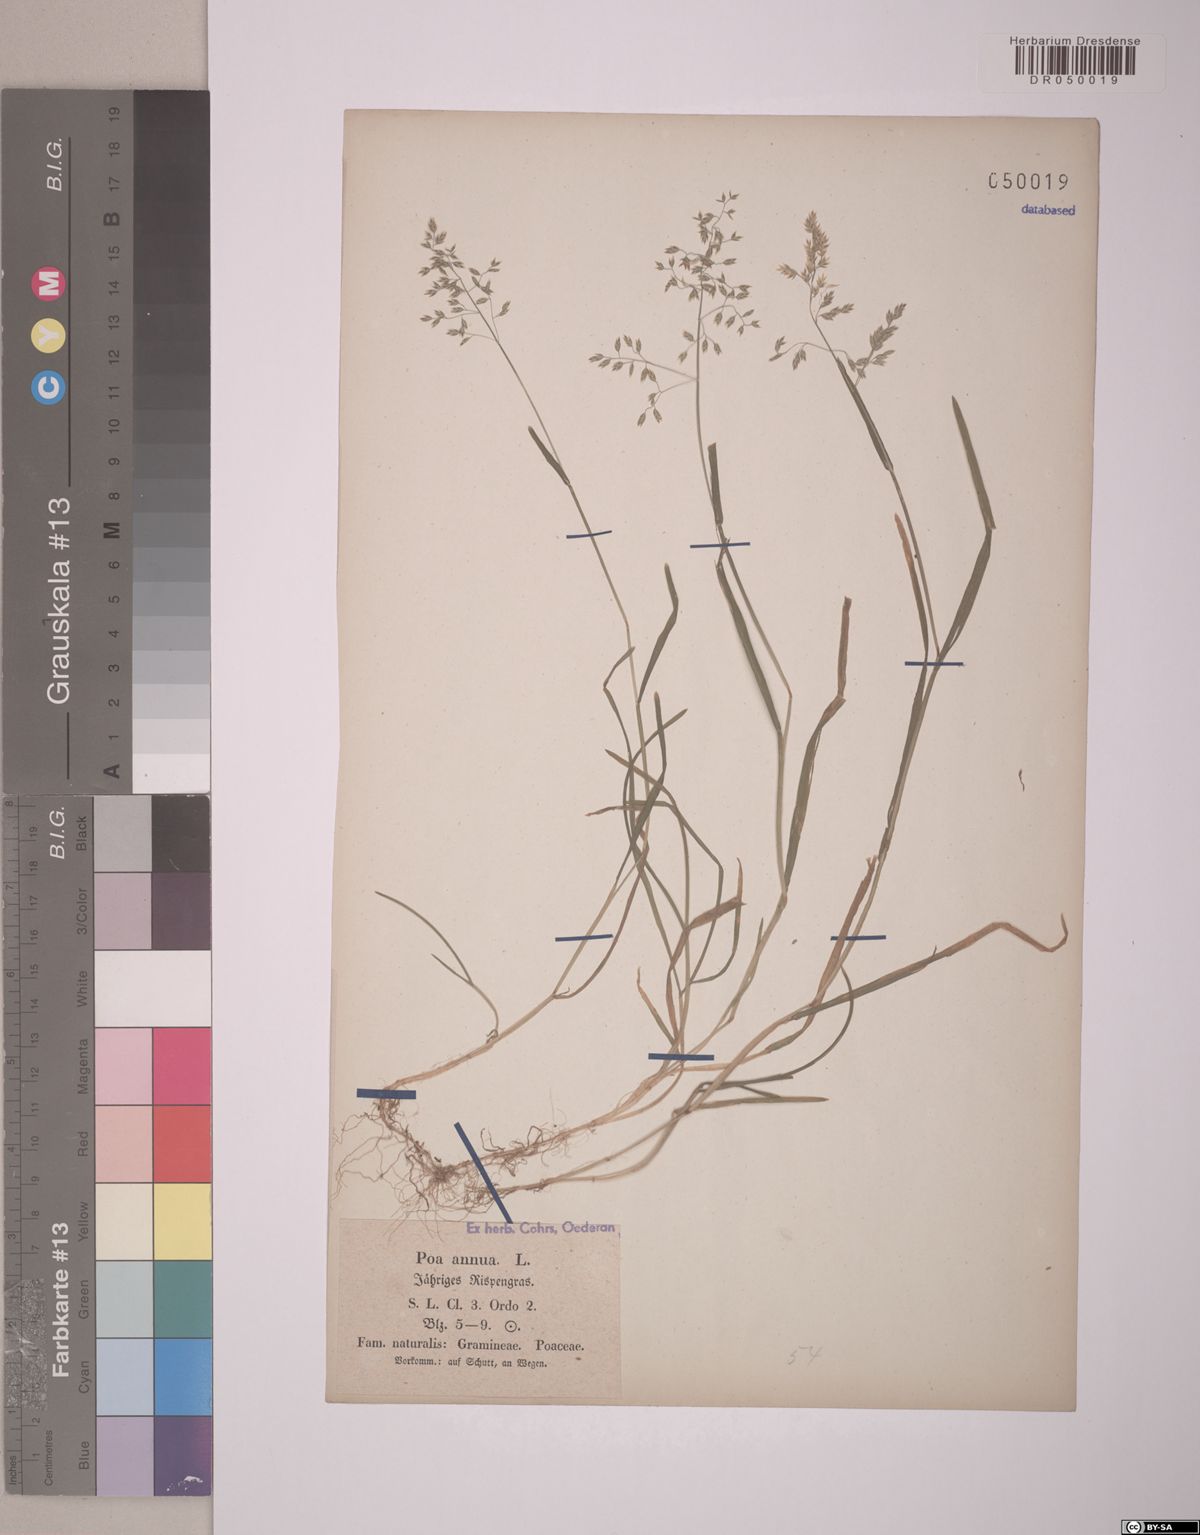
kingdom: Plantae
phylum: Tracheophyta
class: Liliopsida
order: Poales
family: Poaceae
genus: Poa
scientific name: Poa annua
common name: Annual bluegrass
